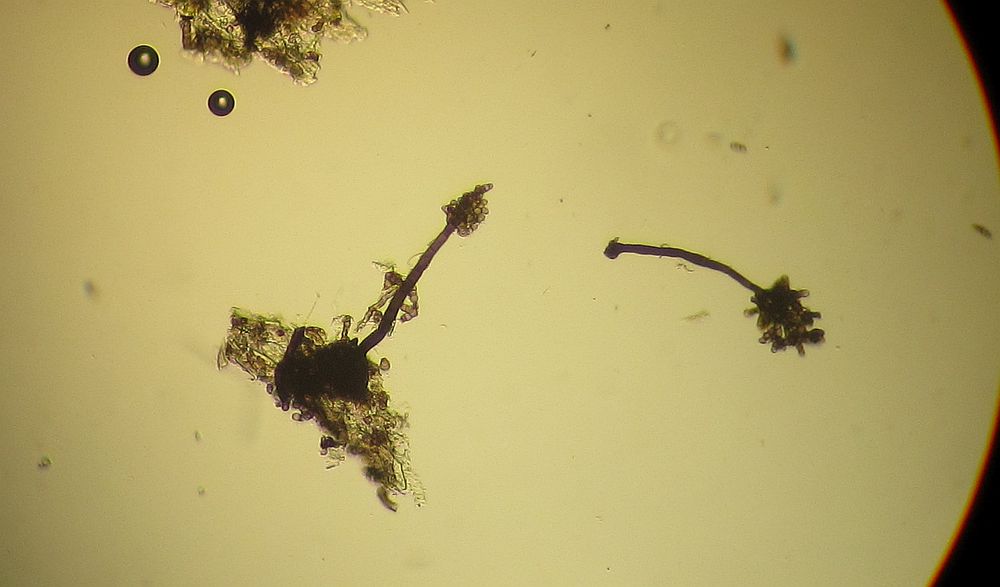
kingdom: Fungi
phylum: Ascomycota
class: Dothideomycetes
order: Pleosporales
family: Torulaceae
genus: Dendryphion
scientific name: Dendryphion comosum
